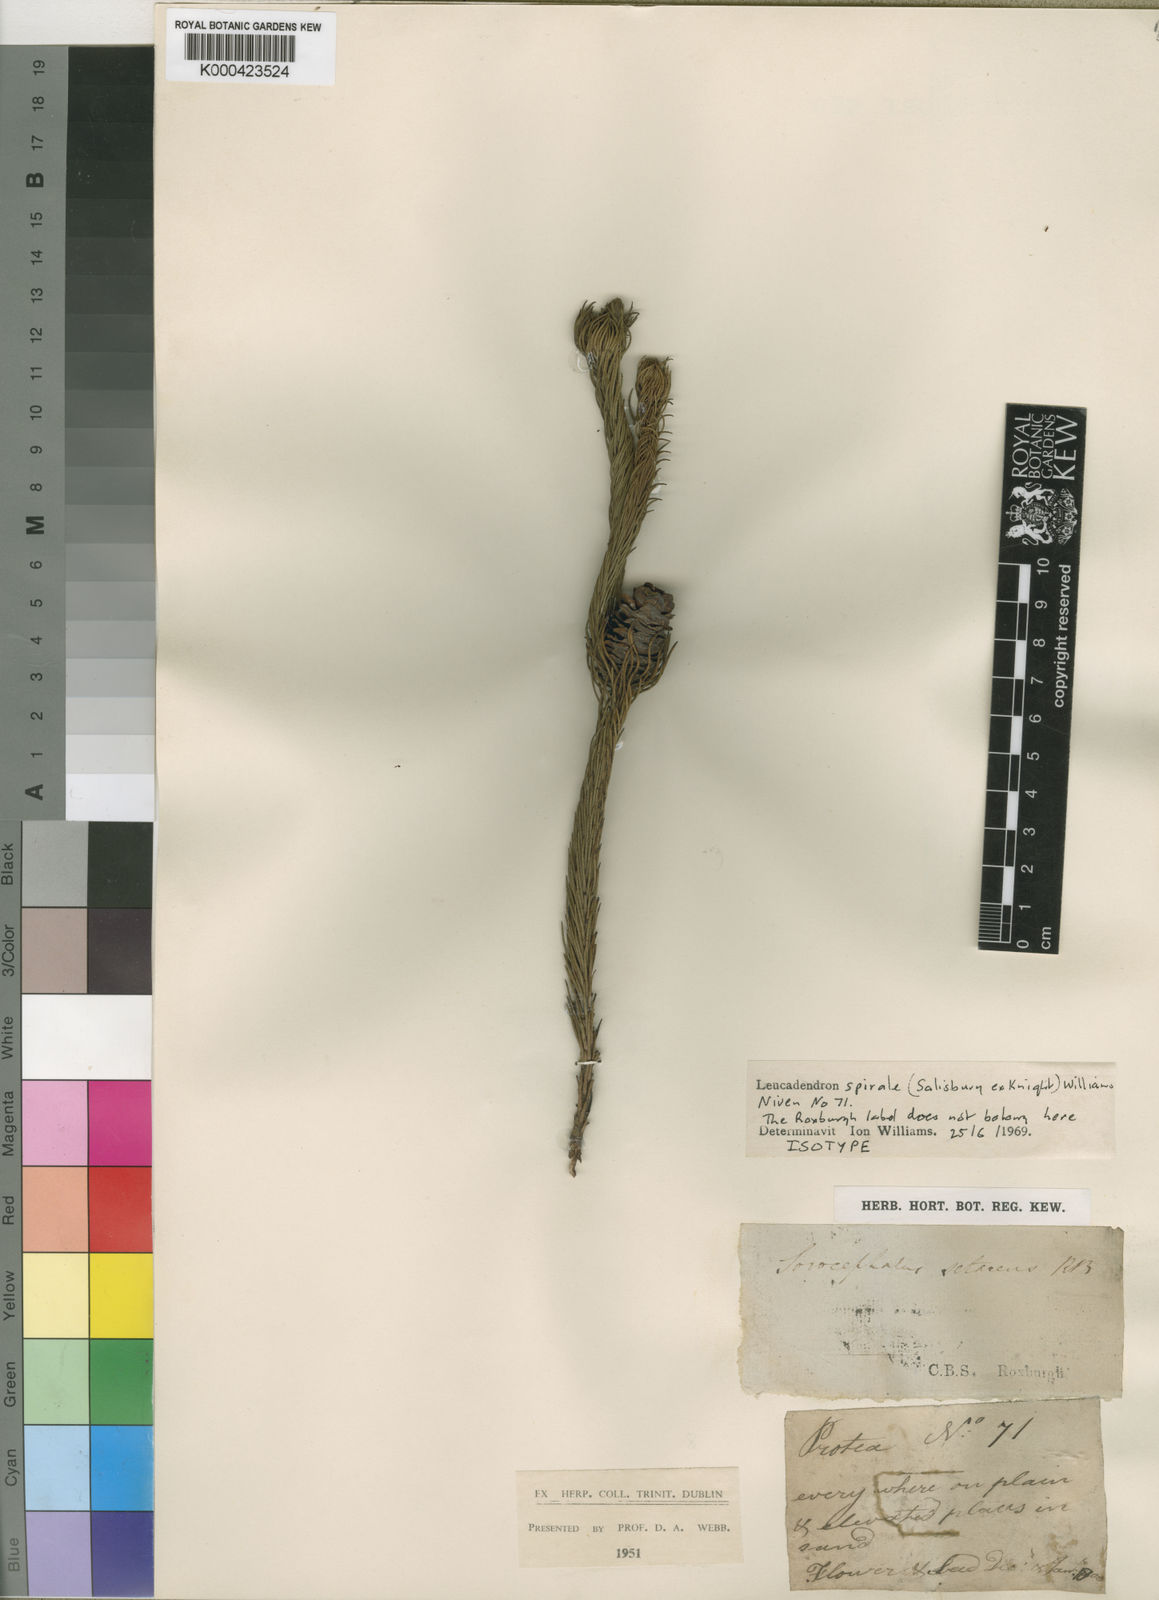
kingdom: Plantae
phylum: Tracheophyta
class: Magnoliopsida
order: Proteales
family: Proteaceae
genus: Leucadendron
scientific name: Leucadendron spirale
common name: Wolseley conebush
